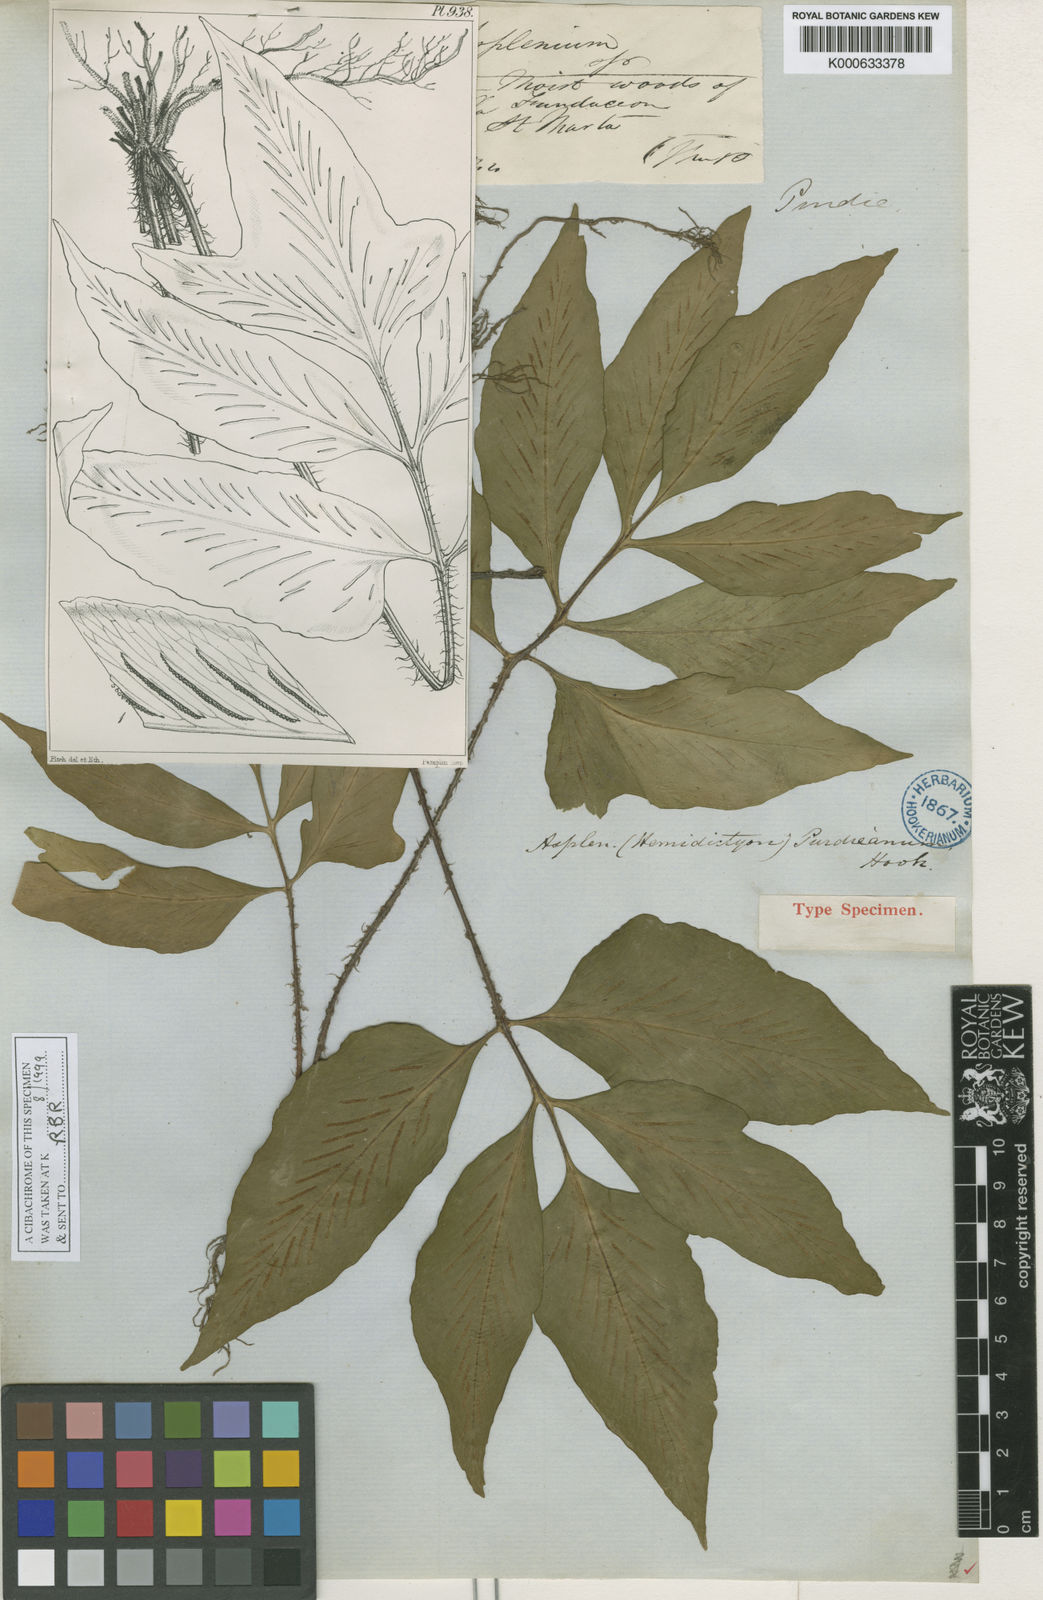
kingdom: Plantae
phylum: Tracheophyta
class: Polypodiopsida
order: Polypodiales
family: Aspleniaceae
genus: Asplenium
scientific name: Asplenium purdieanum
